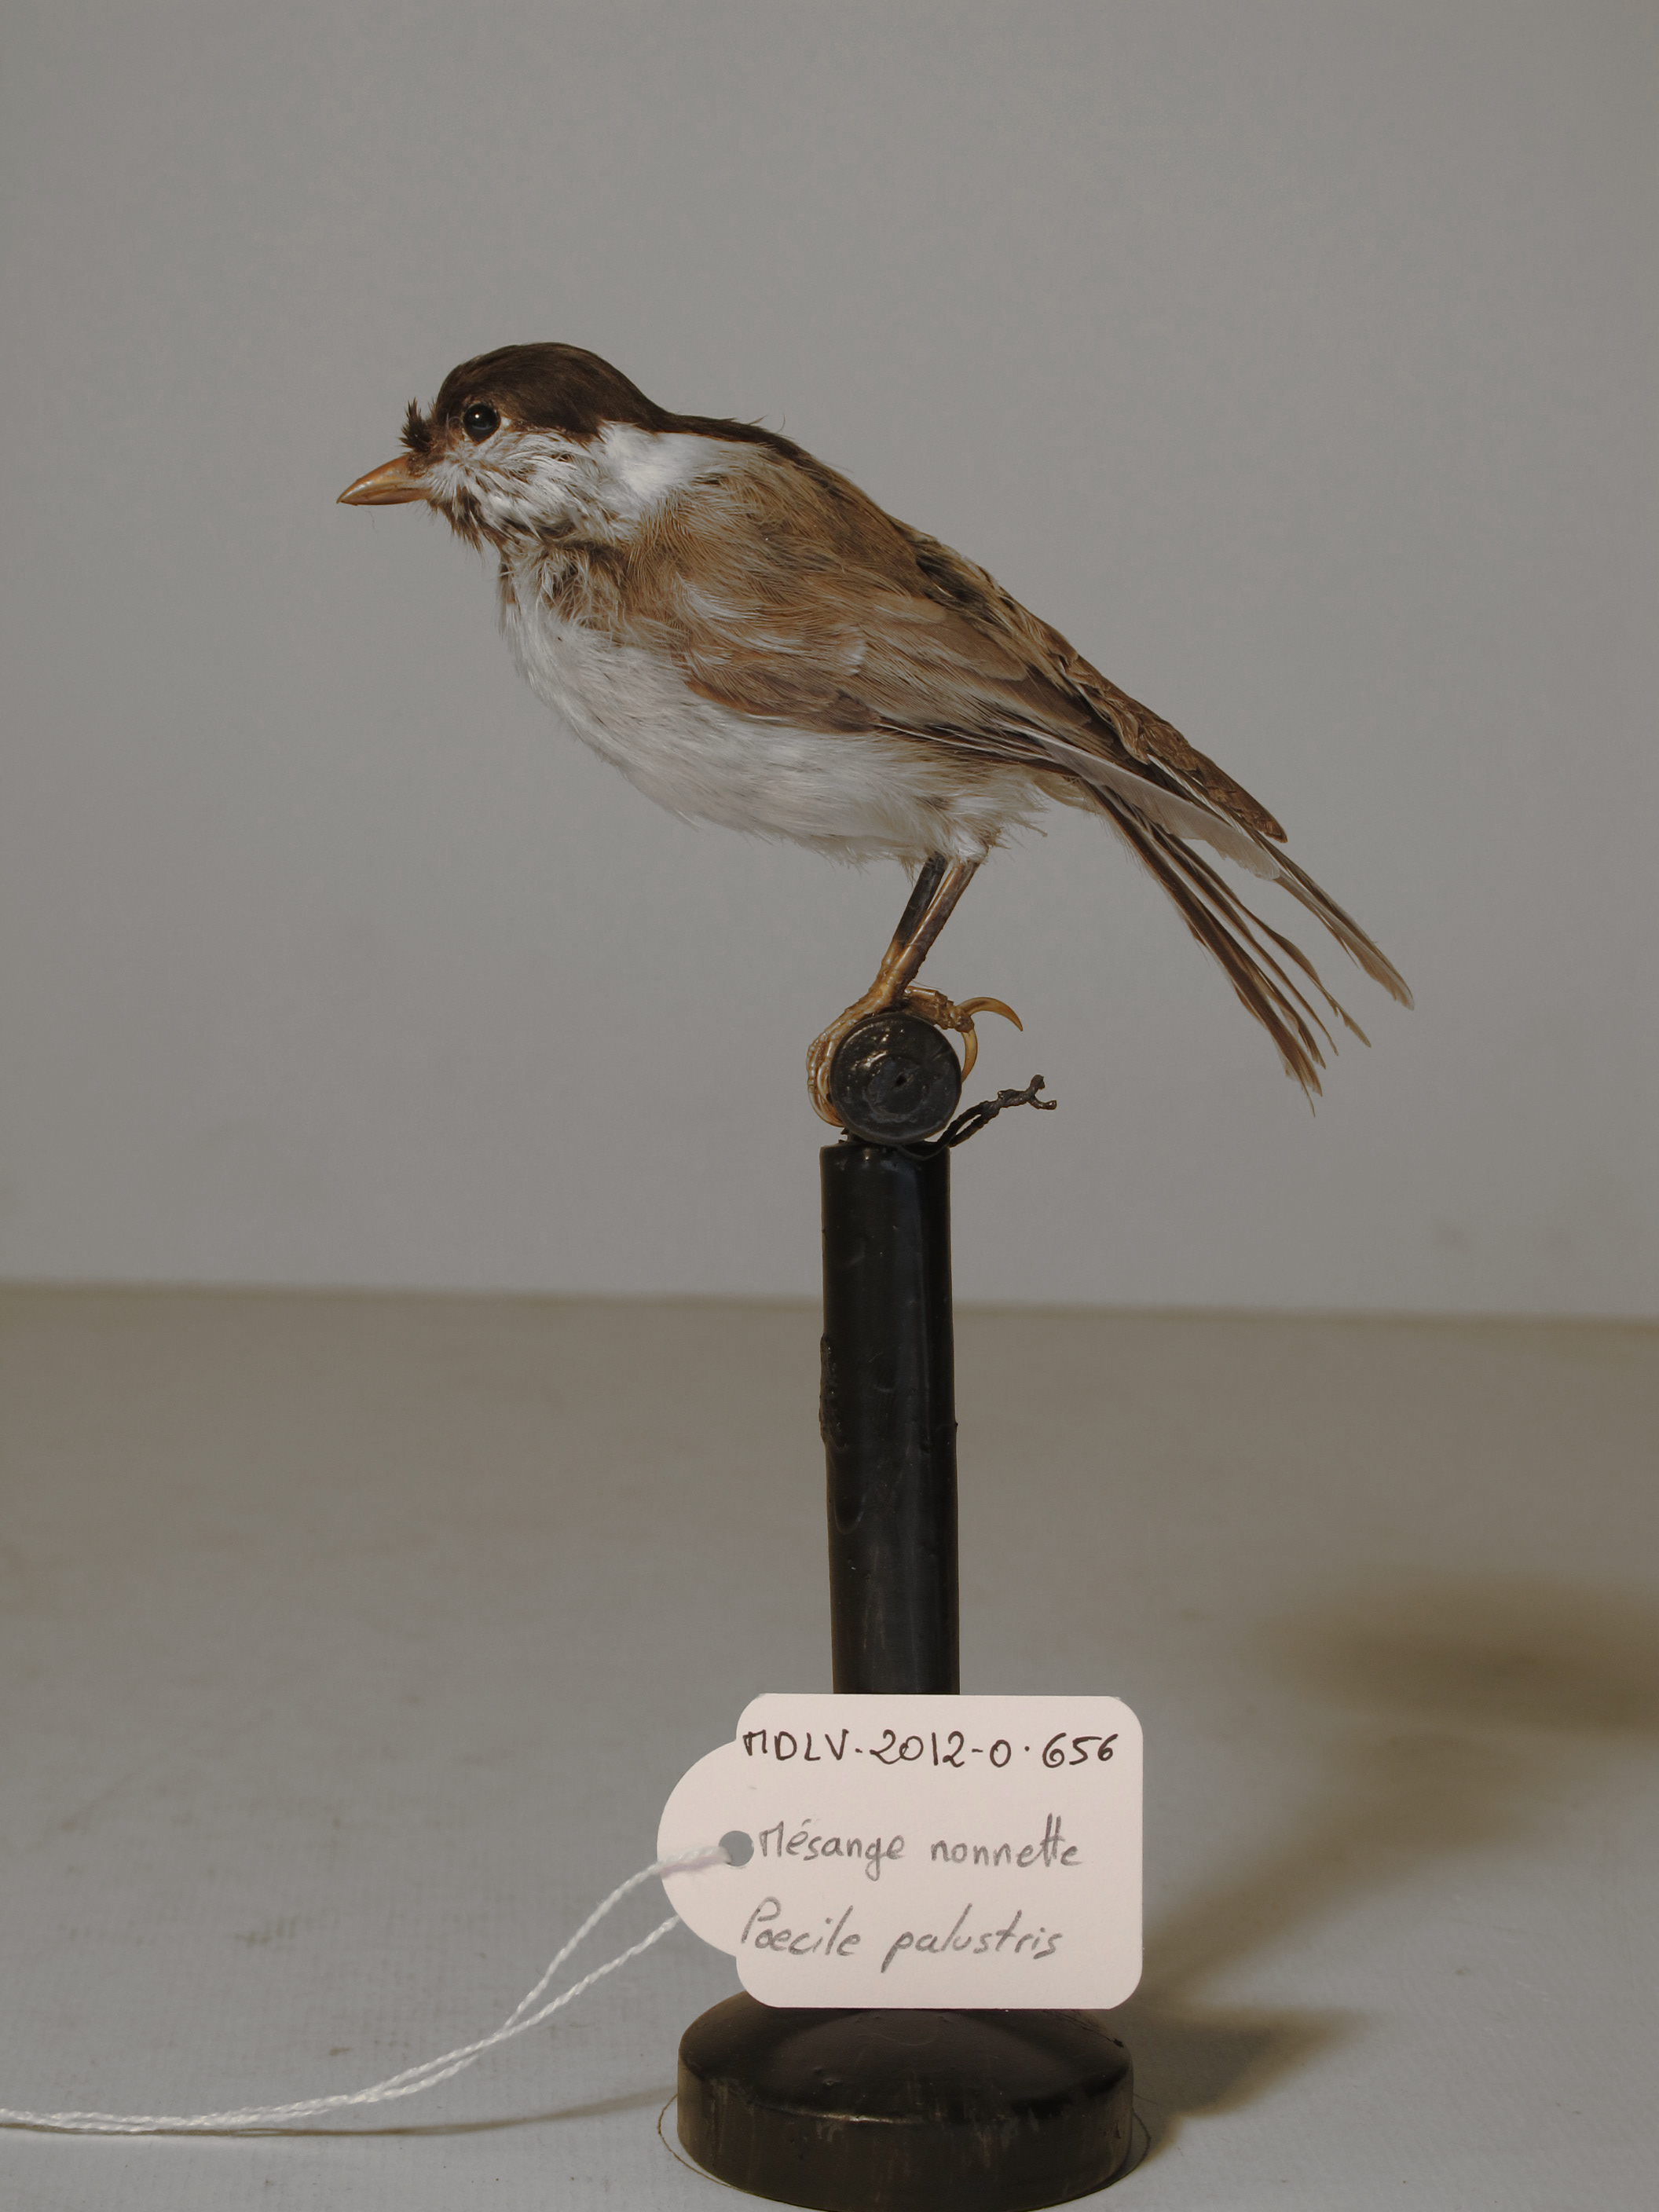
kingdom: Animalia
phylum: Chordata
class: Aves
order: Passeriformes
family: Paridae
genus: Poecile
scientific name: Poecile palustris
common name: Marsh Tit
